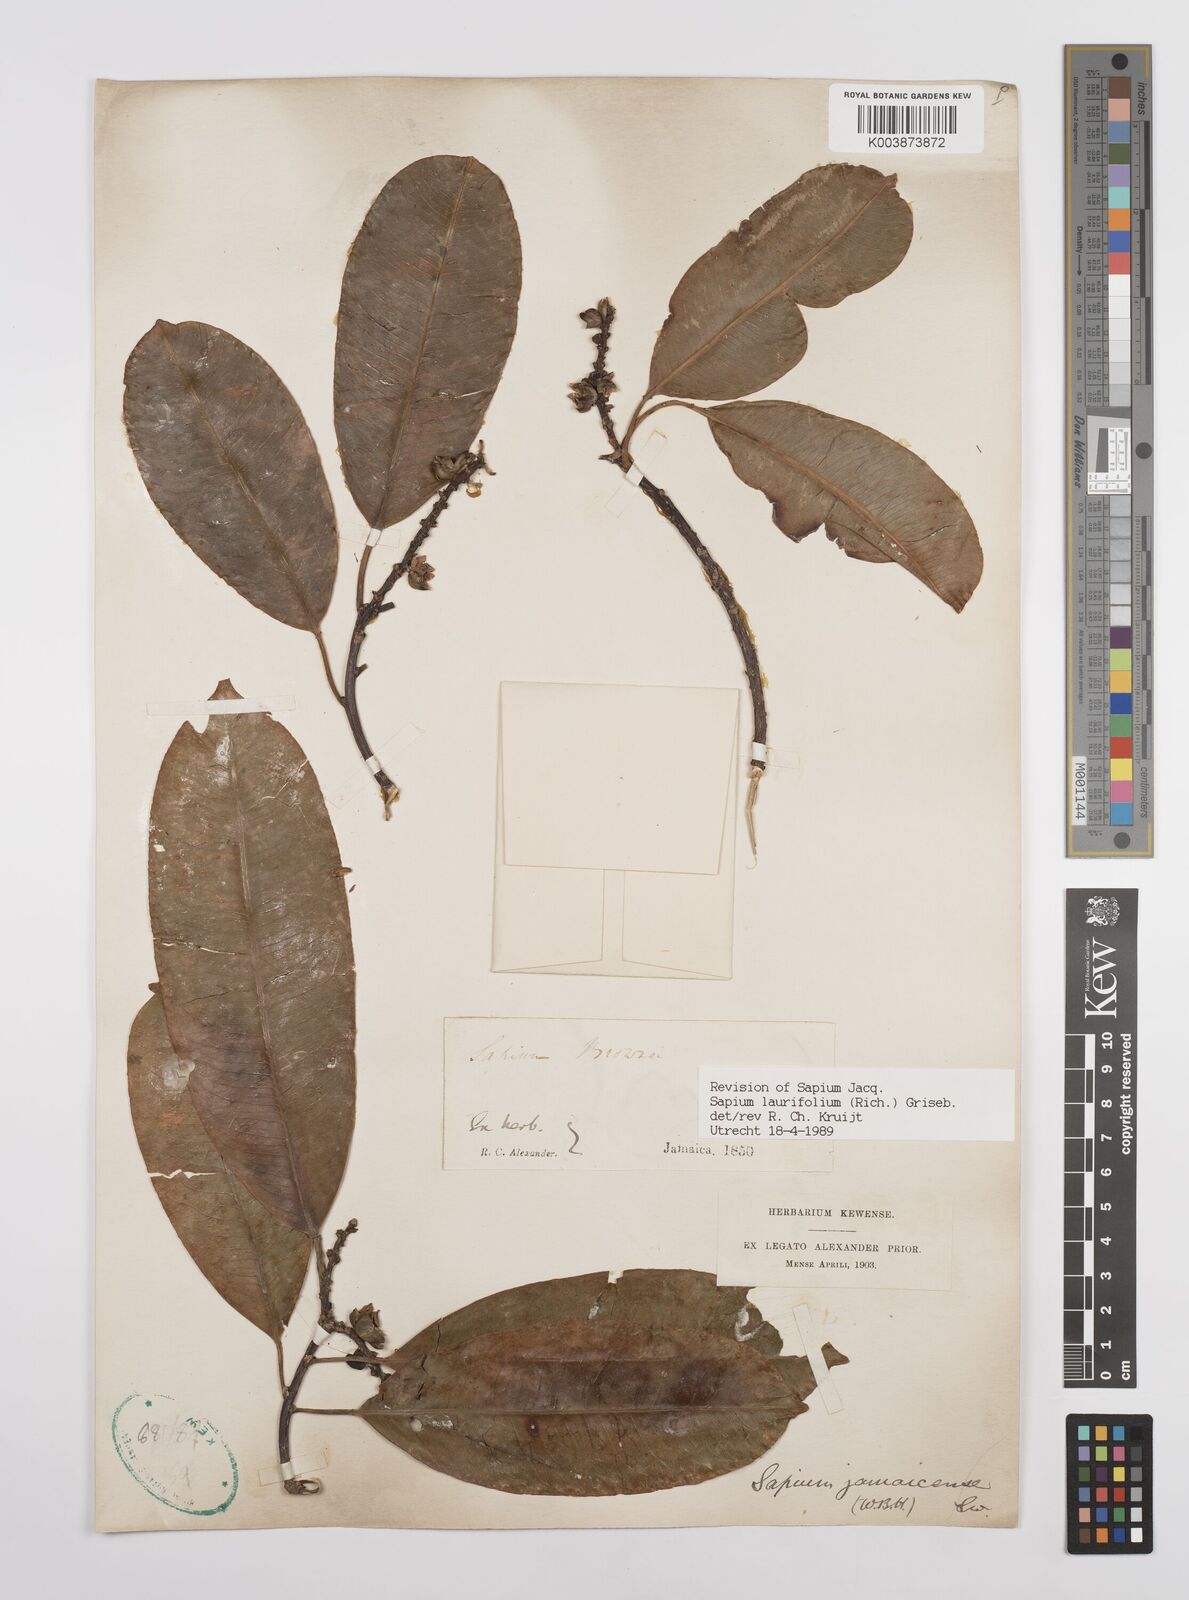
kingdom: Plantae
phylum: Tracheophyta
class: Magnoliopsida
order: Malpighiales
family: Euphorbiaceae
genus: Sapium
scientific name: Sapium glandulosum
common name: Milktree
